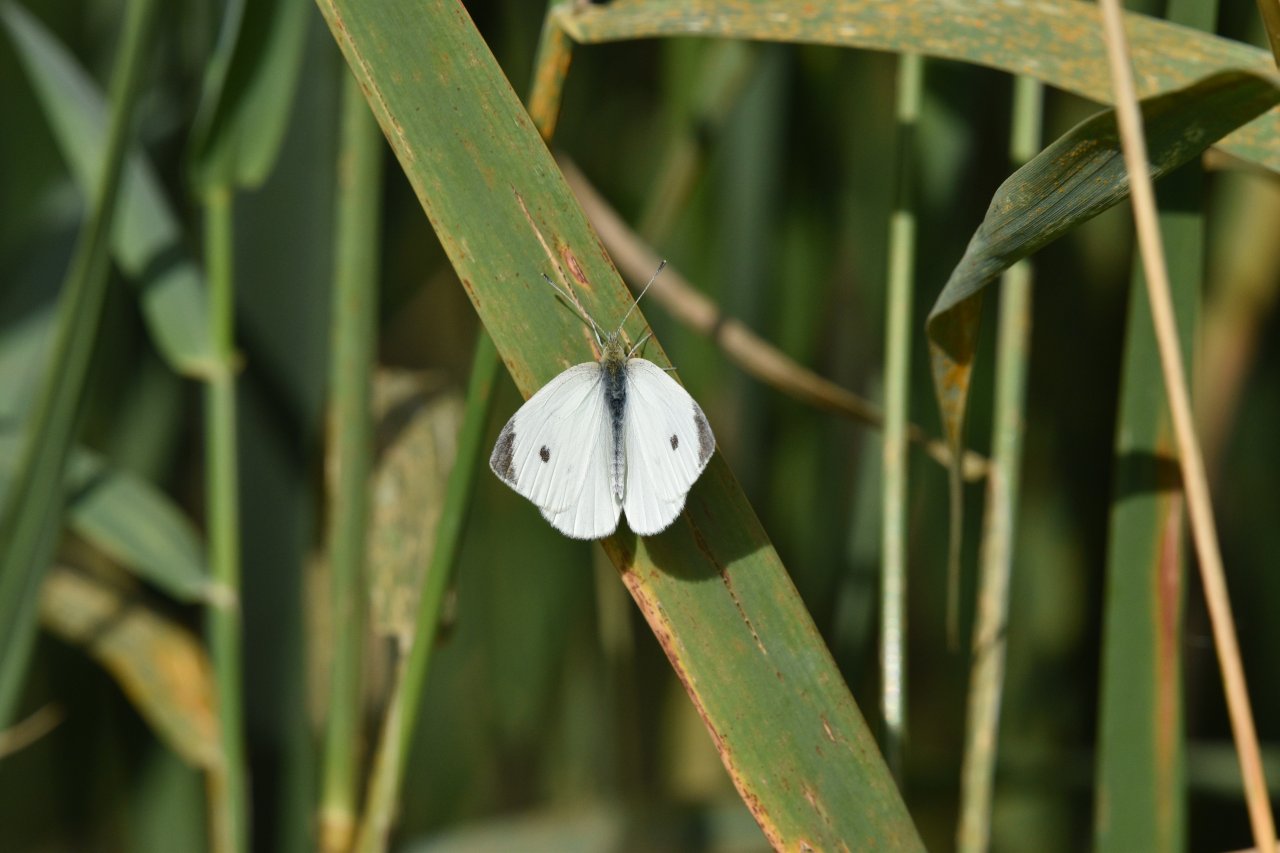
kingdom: Animalia
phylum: Arthropoda
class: Insecta
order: Lepidoptera
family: Pieridae
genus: Pieris
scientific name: Pieris rapae
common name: Cabbage White
